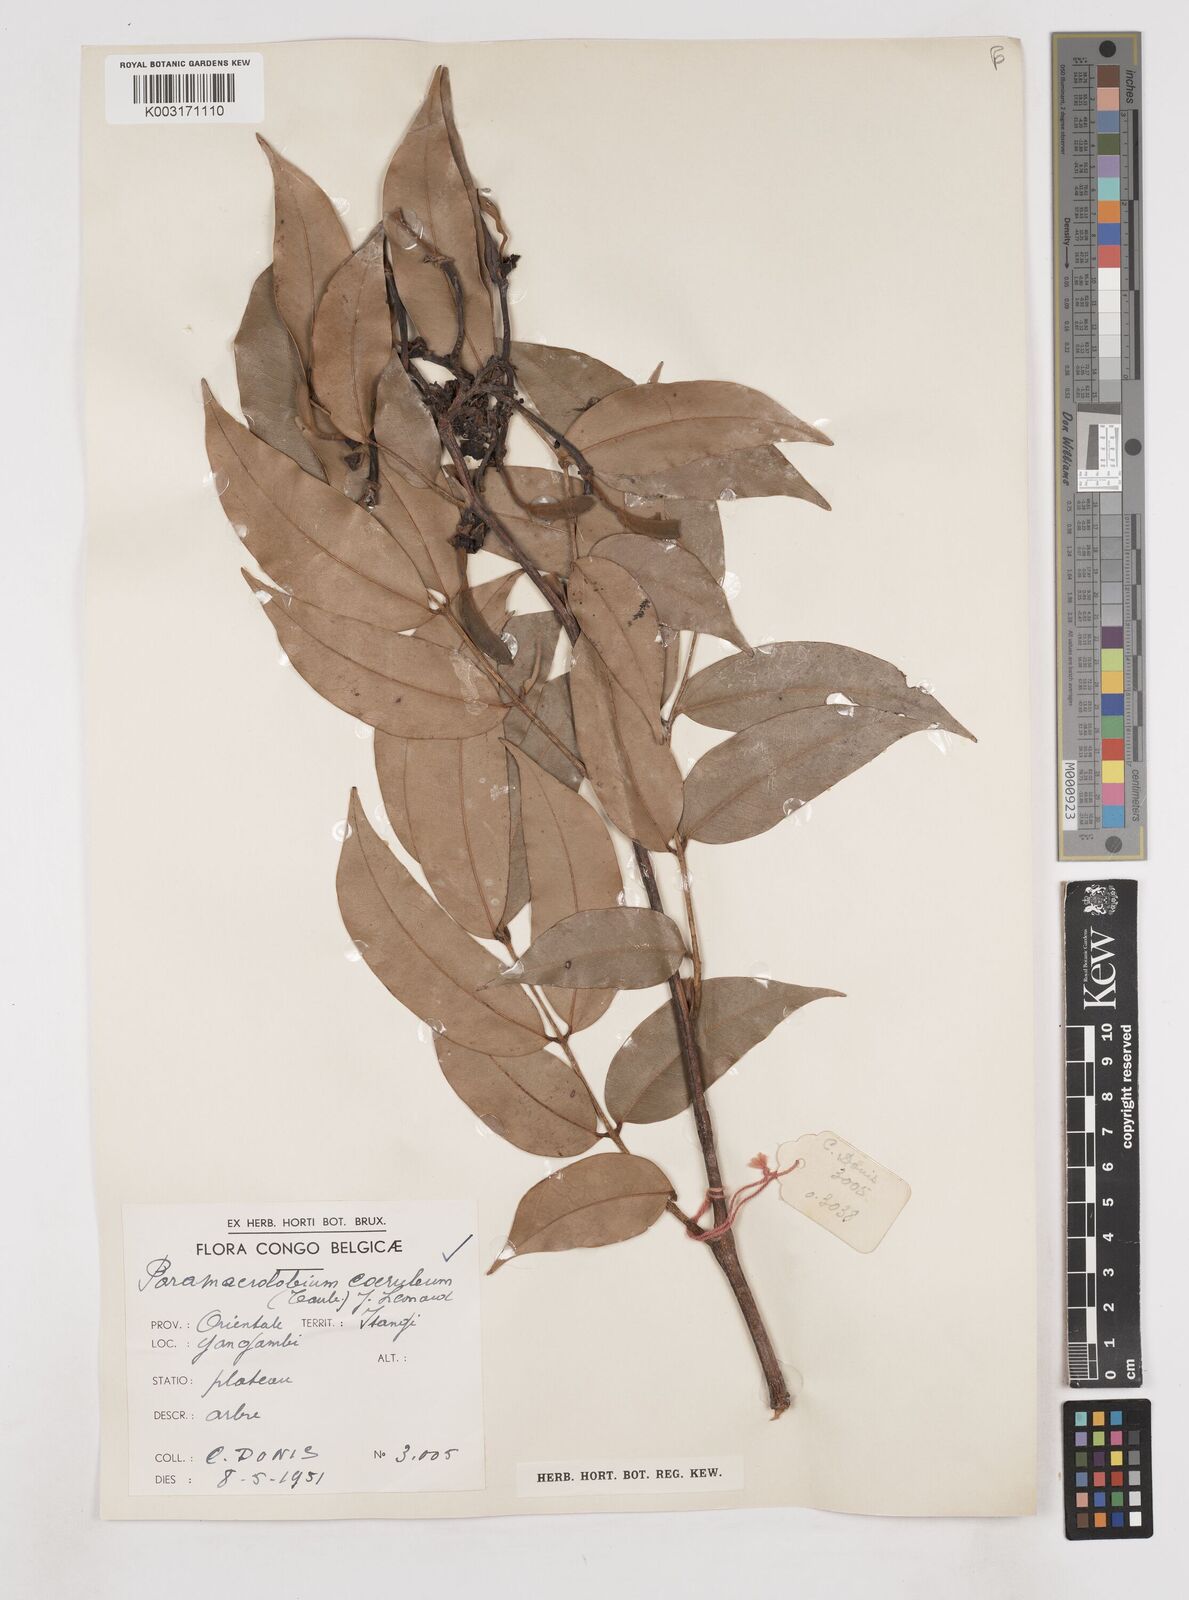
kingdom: Plantae
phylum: Tracheophyta
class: Magnoliopsida
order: Fabales
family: Fabaceae
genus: Paramacrolobium
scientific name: Paramacrolobium coeruleum
